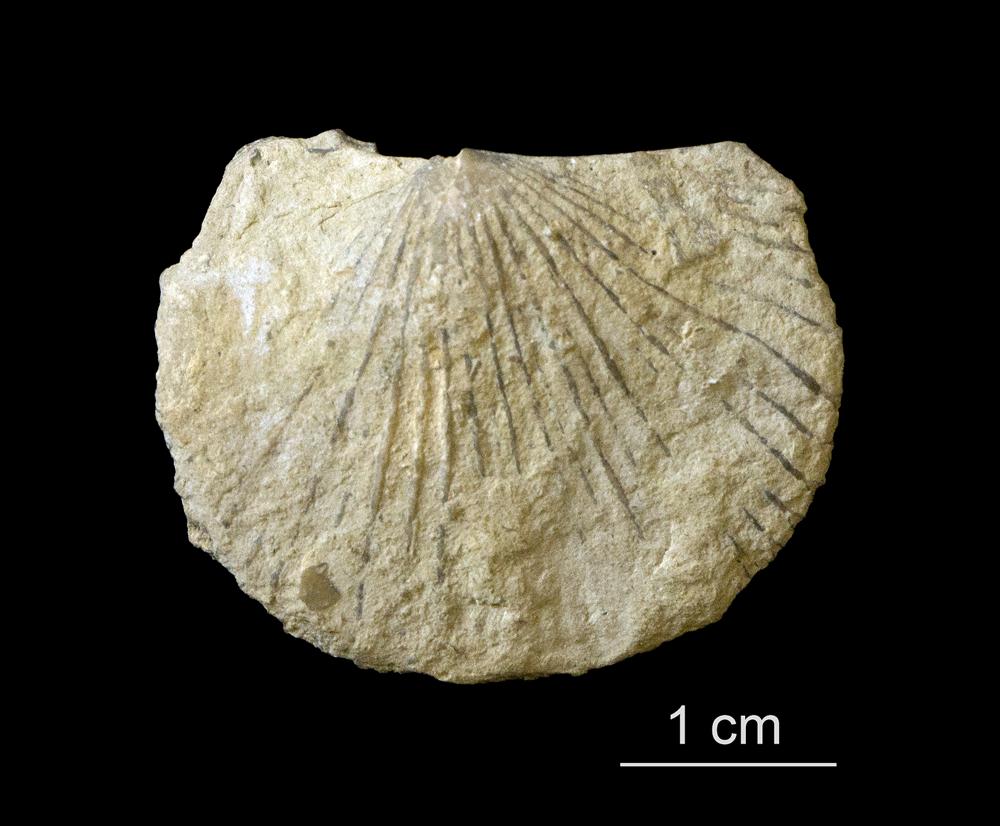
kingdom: Animalia
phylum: Brachiopoda
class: Rhynchonellata
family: Orthidae
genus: Cyrtonotella
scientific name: Cyrtonotella Orthis kuckersiana
